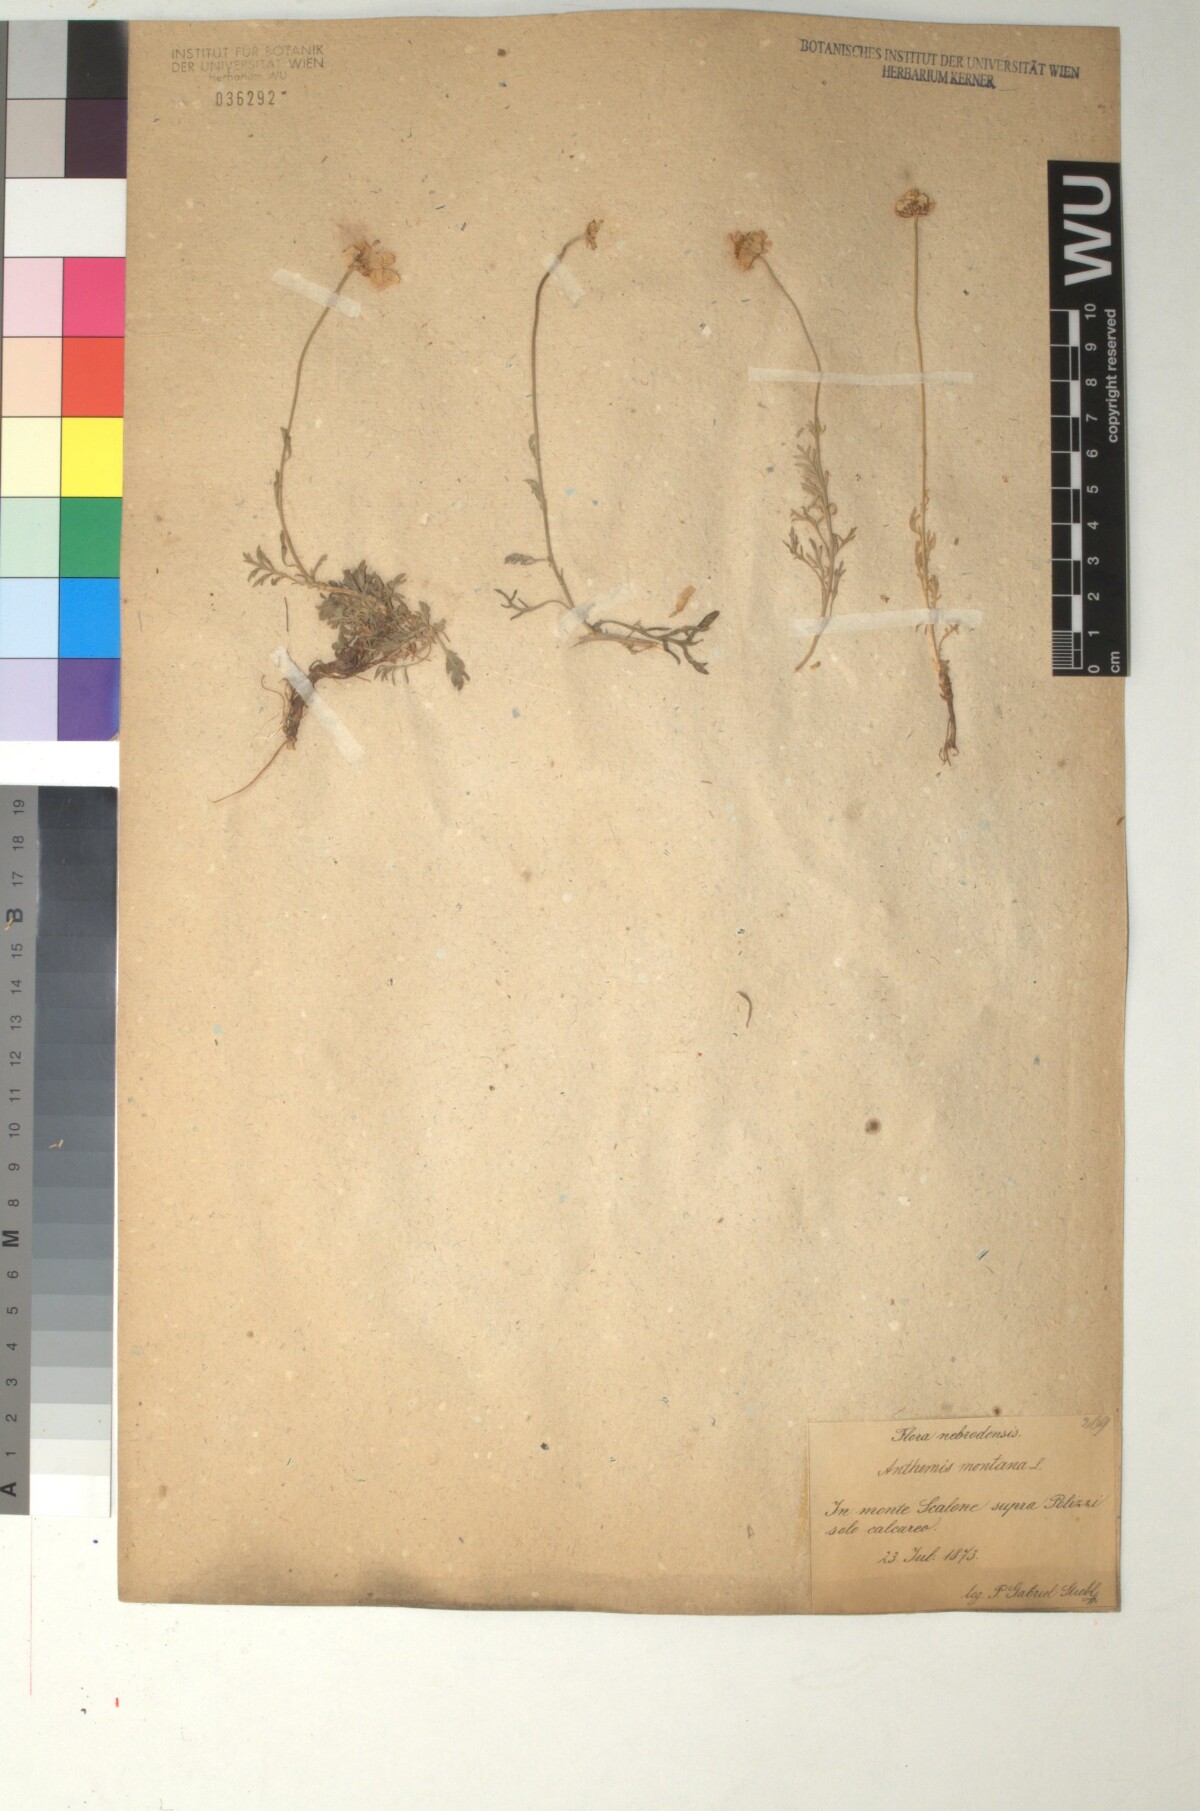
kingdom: Plantae
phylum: Tracheophyta
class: Magnoliopsida
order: Asterales
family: Asteraceae
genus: Anthemis
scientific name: Anthemis cretica
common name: Mountain dog-daisy
